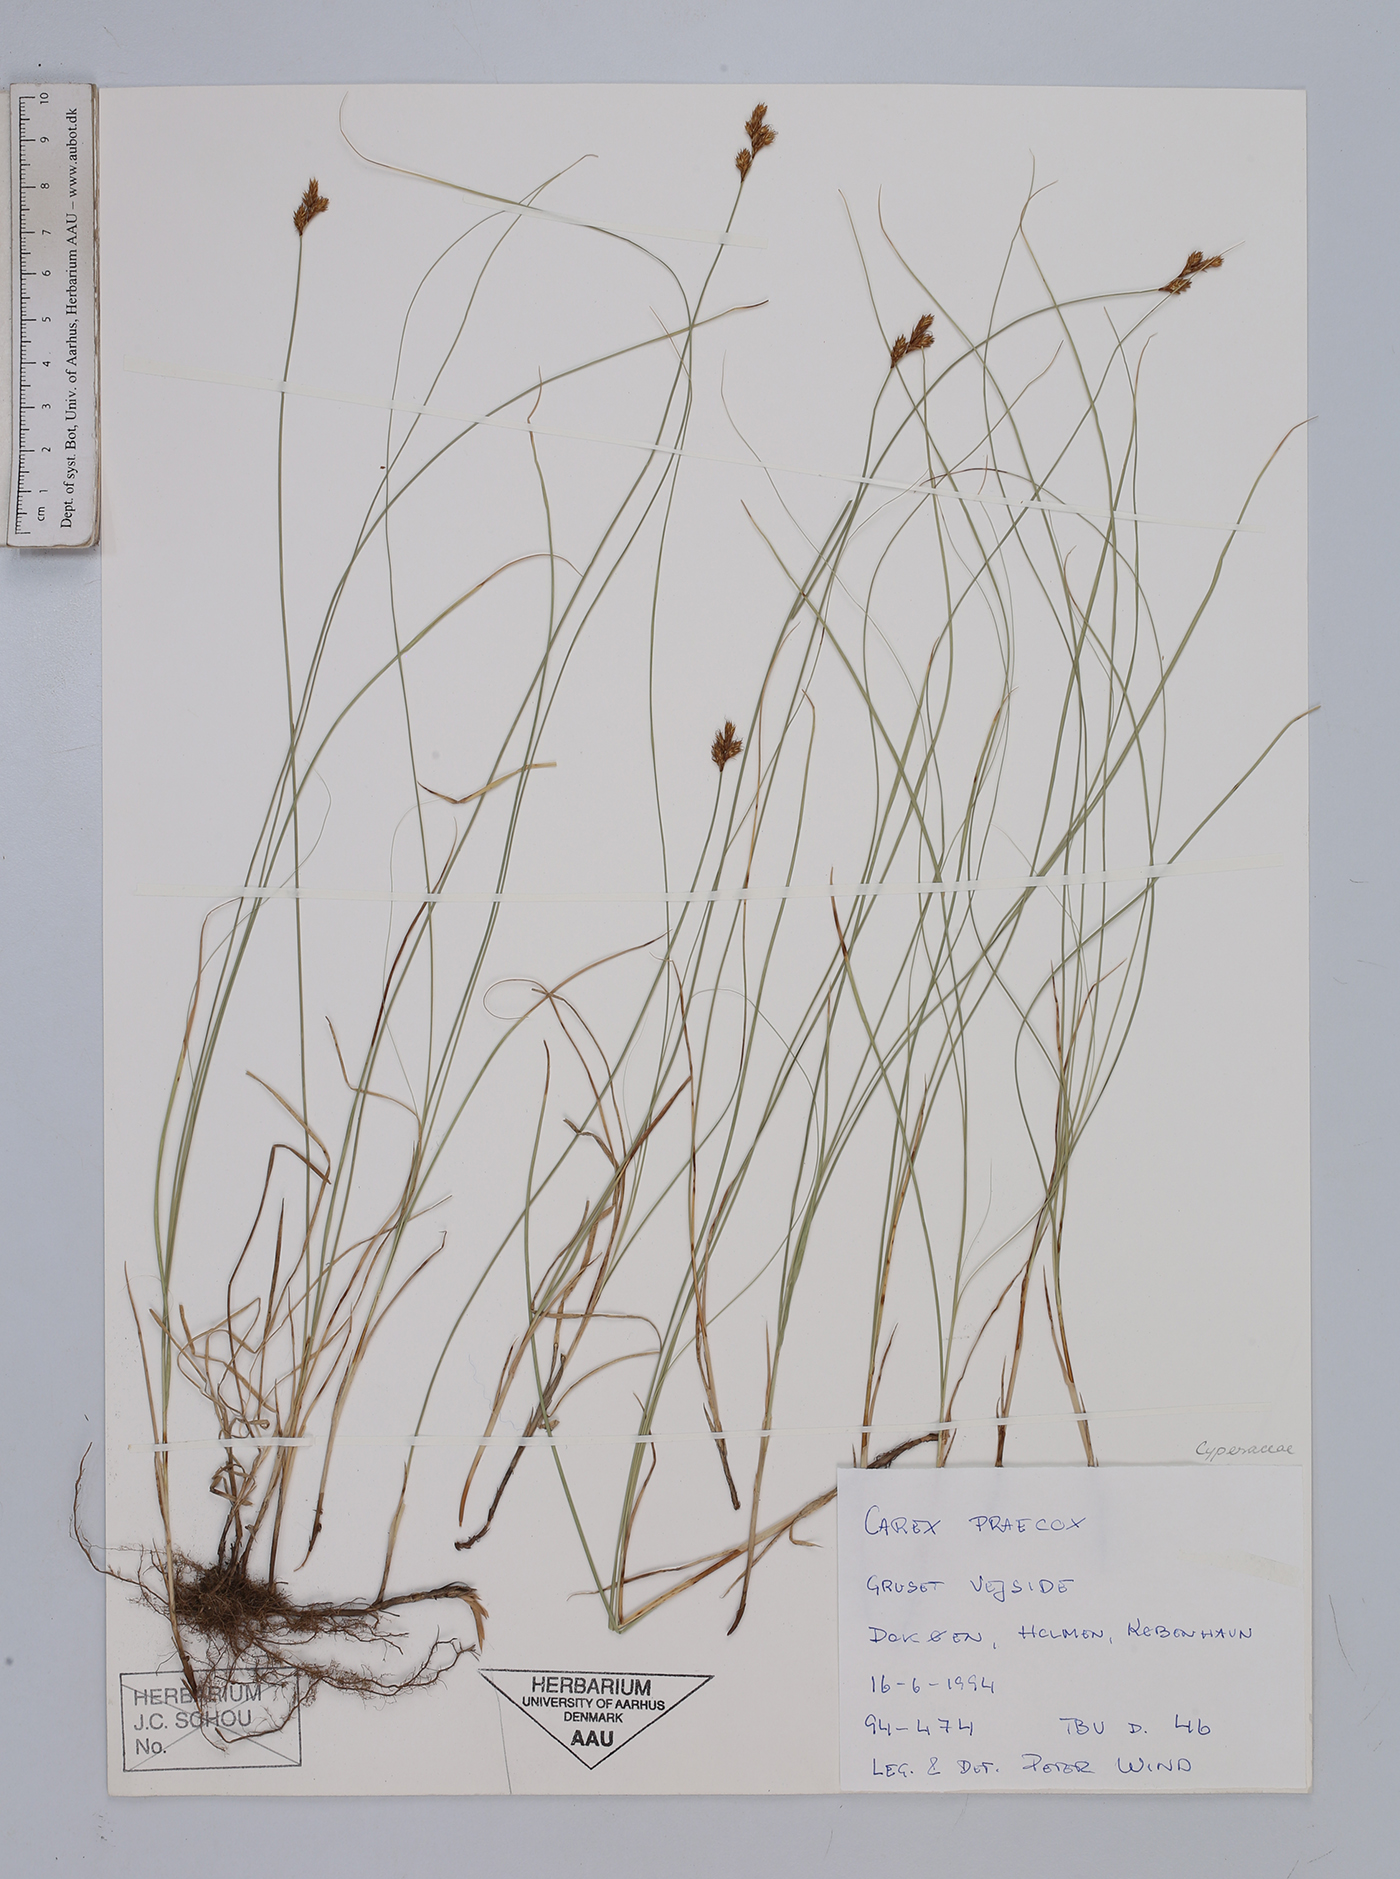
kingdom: Plantae
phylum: Tracheophyta
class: Liliopsida
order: Poales
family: Cyperaceae
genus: Carex
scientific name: Carex praecox
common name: Early sedge
